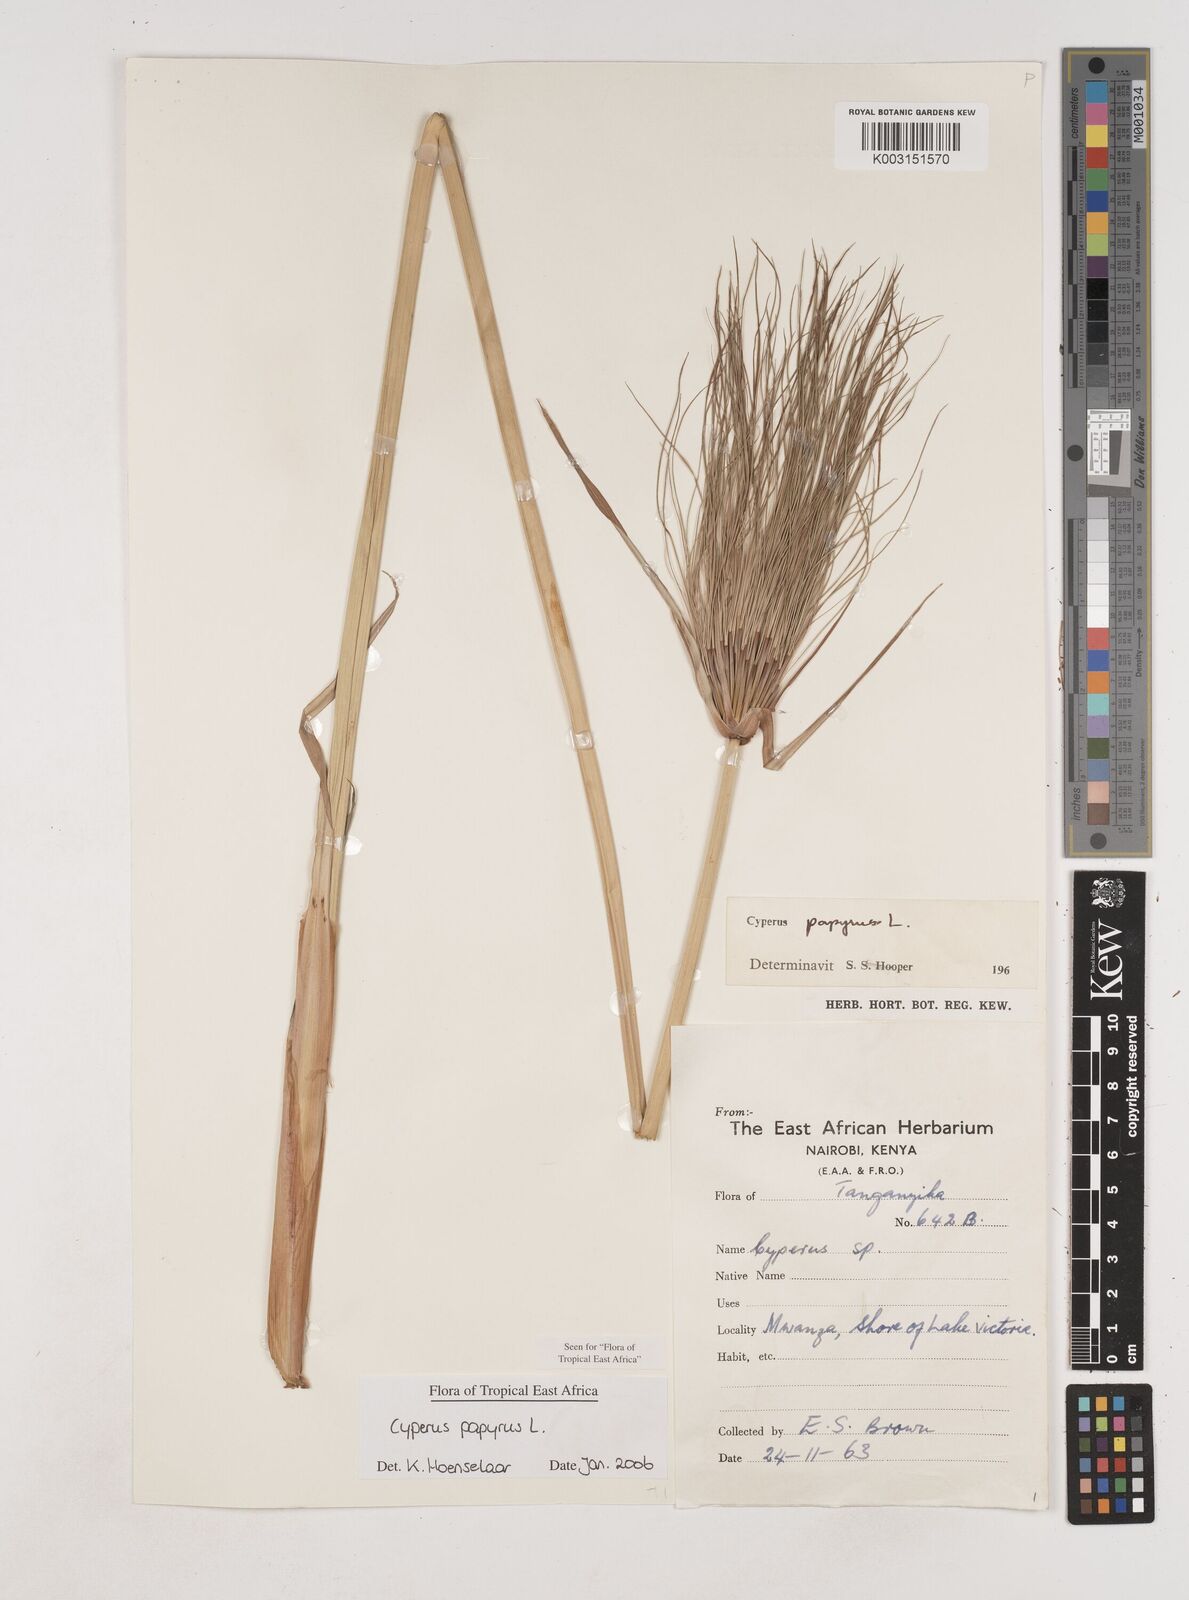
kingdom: Plantae
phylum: Tracheophyta
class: Liliopsida
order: Poales
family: Cyperaceae
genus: Cyperus
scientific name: Cyperus papyrus
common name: Papyrus
